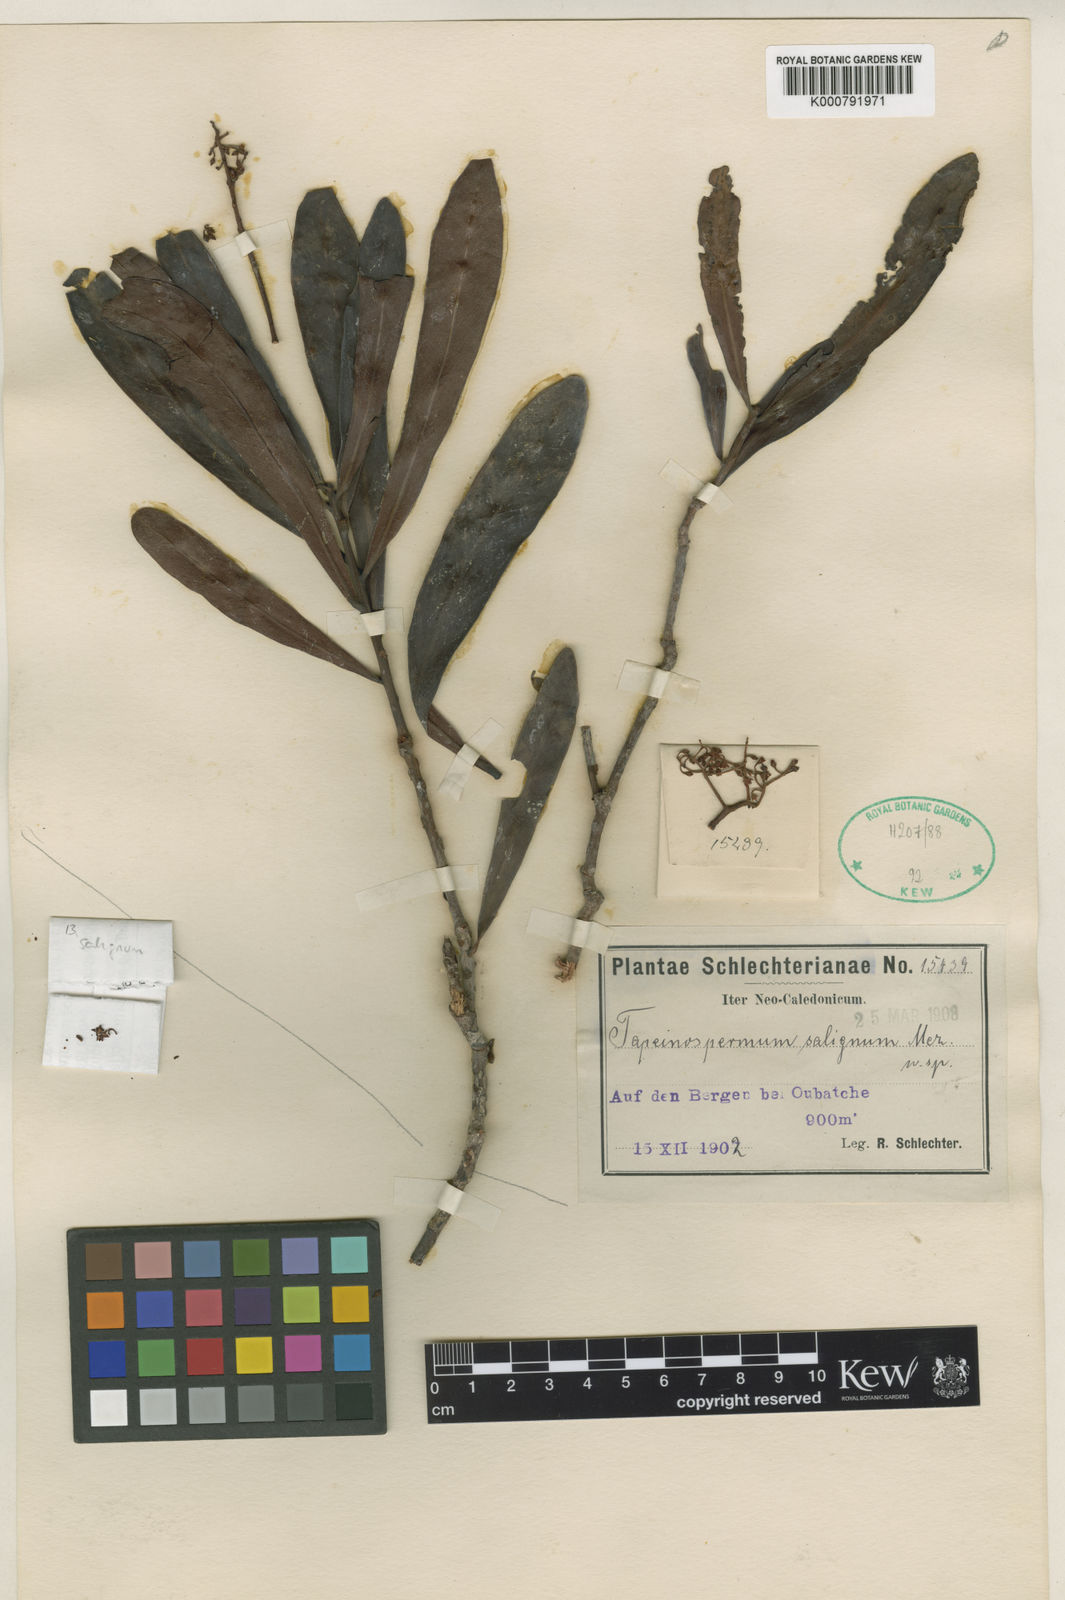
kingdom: Plantae
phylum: Tracheophyta
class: Magnoliopsida
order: Ericales
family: Primulaceae
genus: Tapeinosperma
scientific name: Tapeinosperma psaladense
